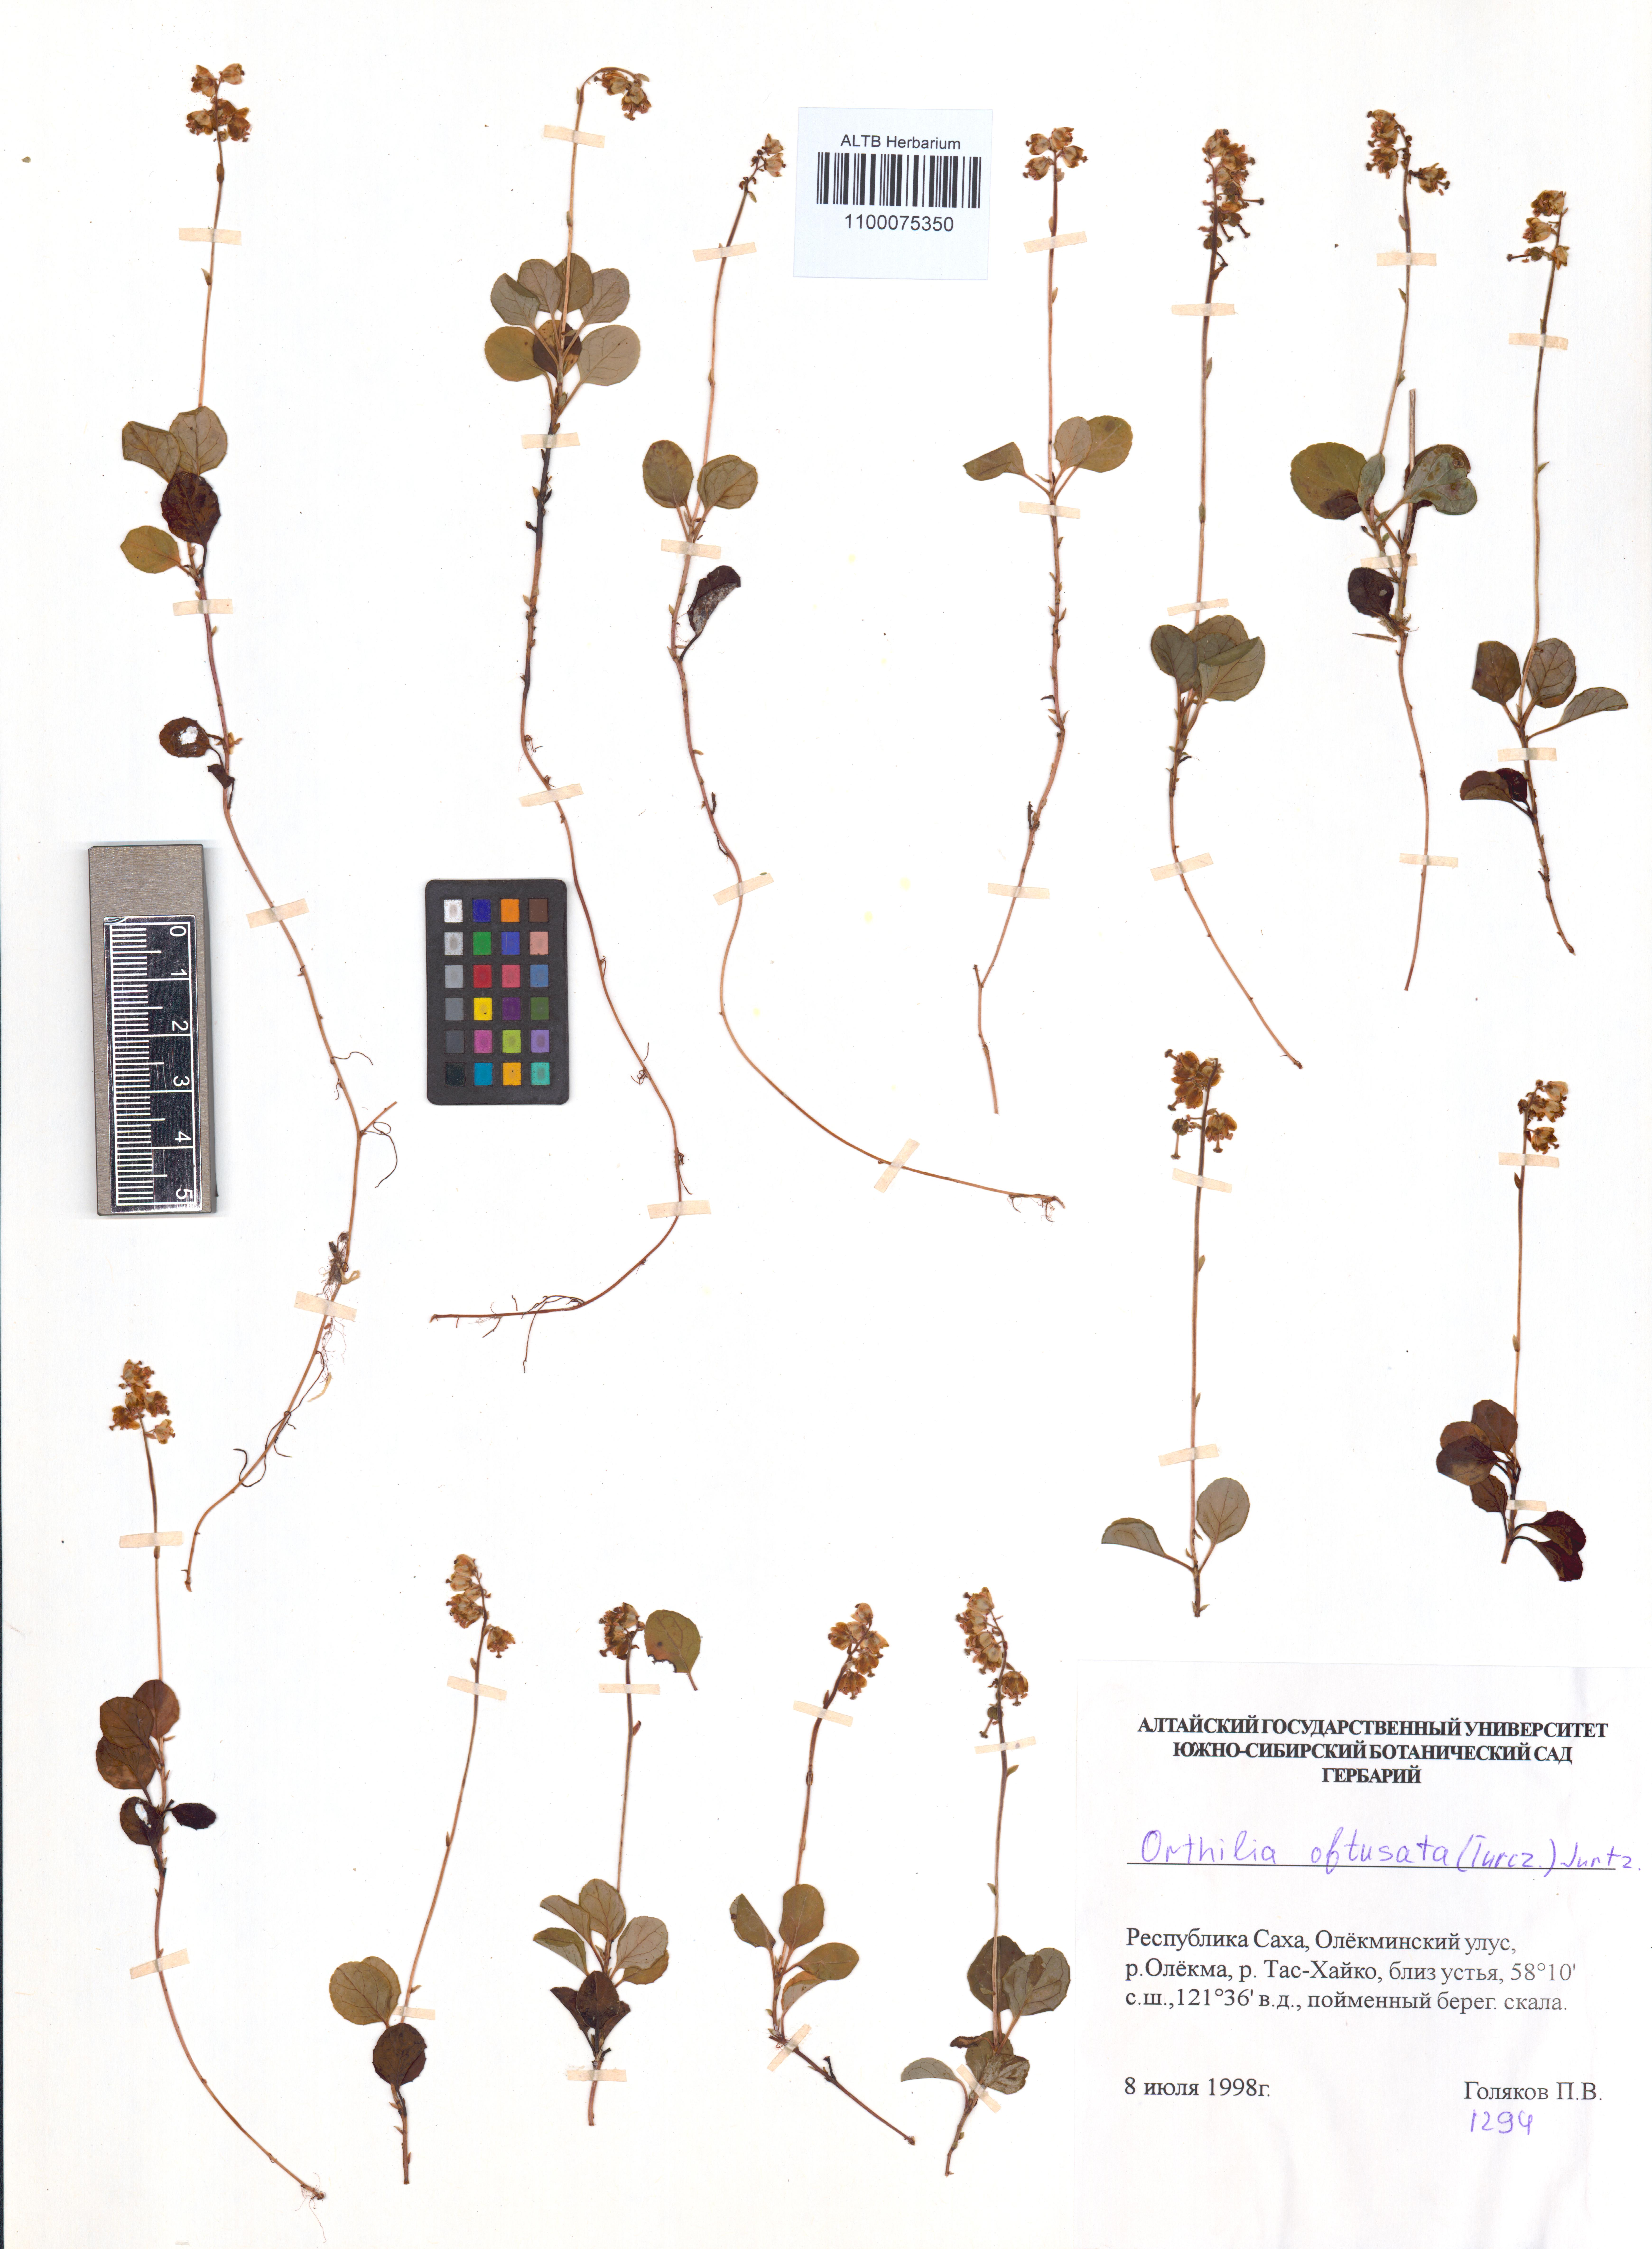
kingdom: Plantae
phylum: Tracheophyta
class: Magnoliopsida
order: Ericales
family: Ericaceae
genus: Orthilia
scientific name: Orthilia secunda
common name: One-sided orthilia
